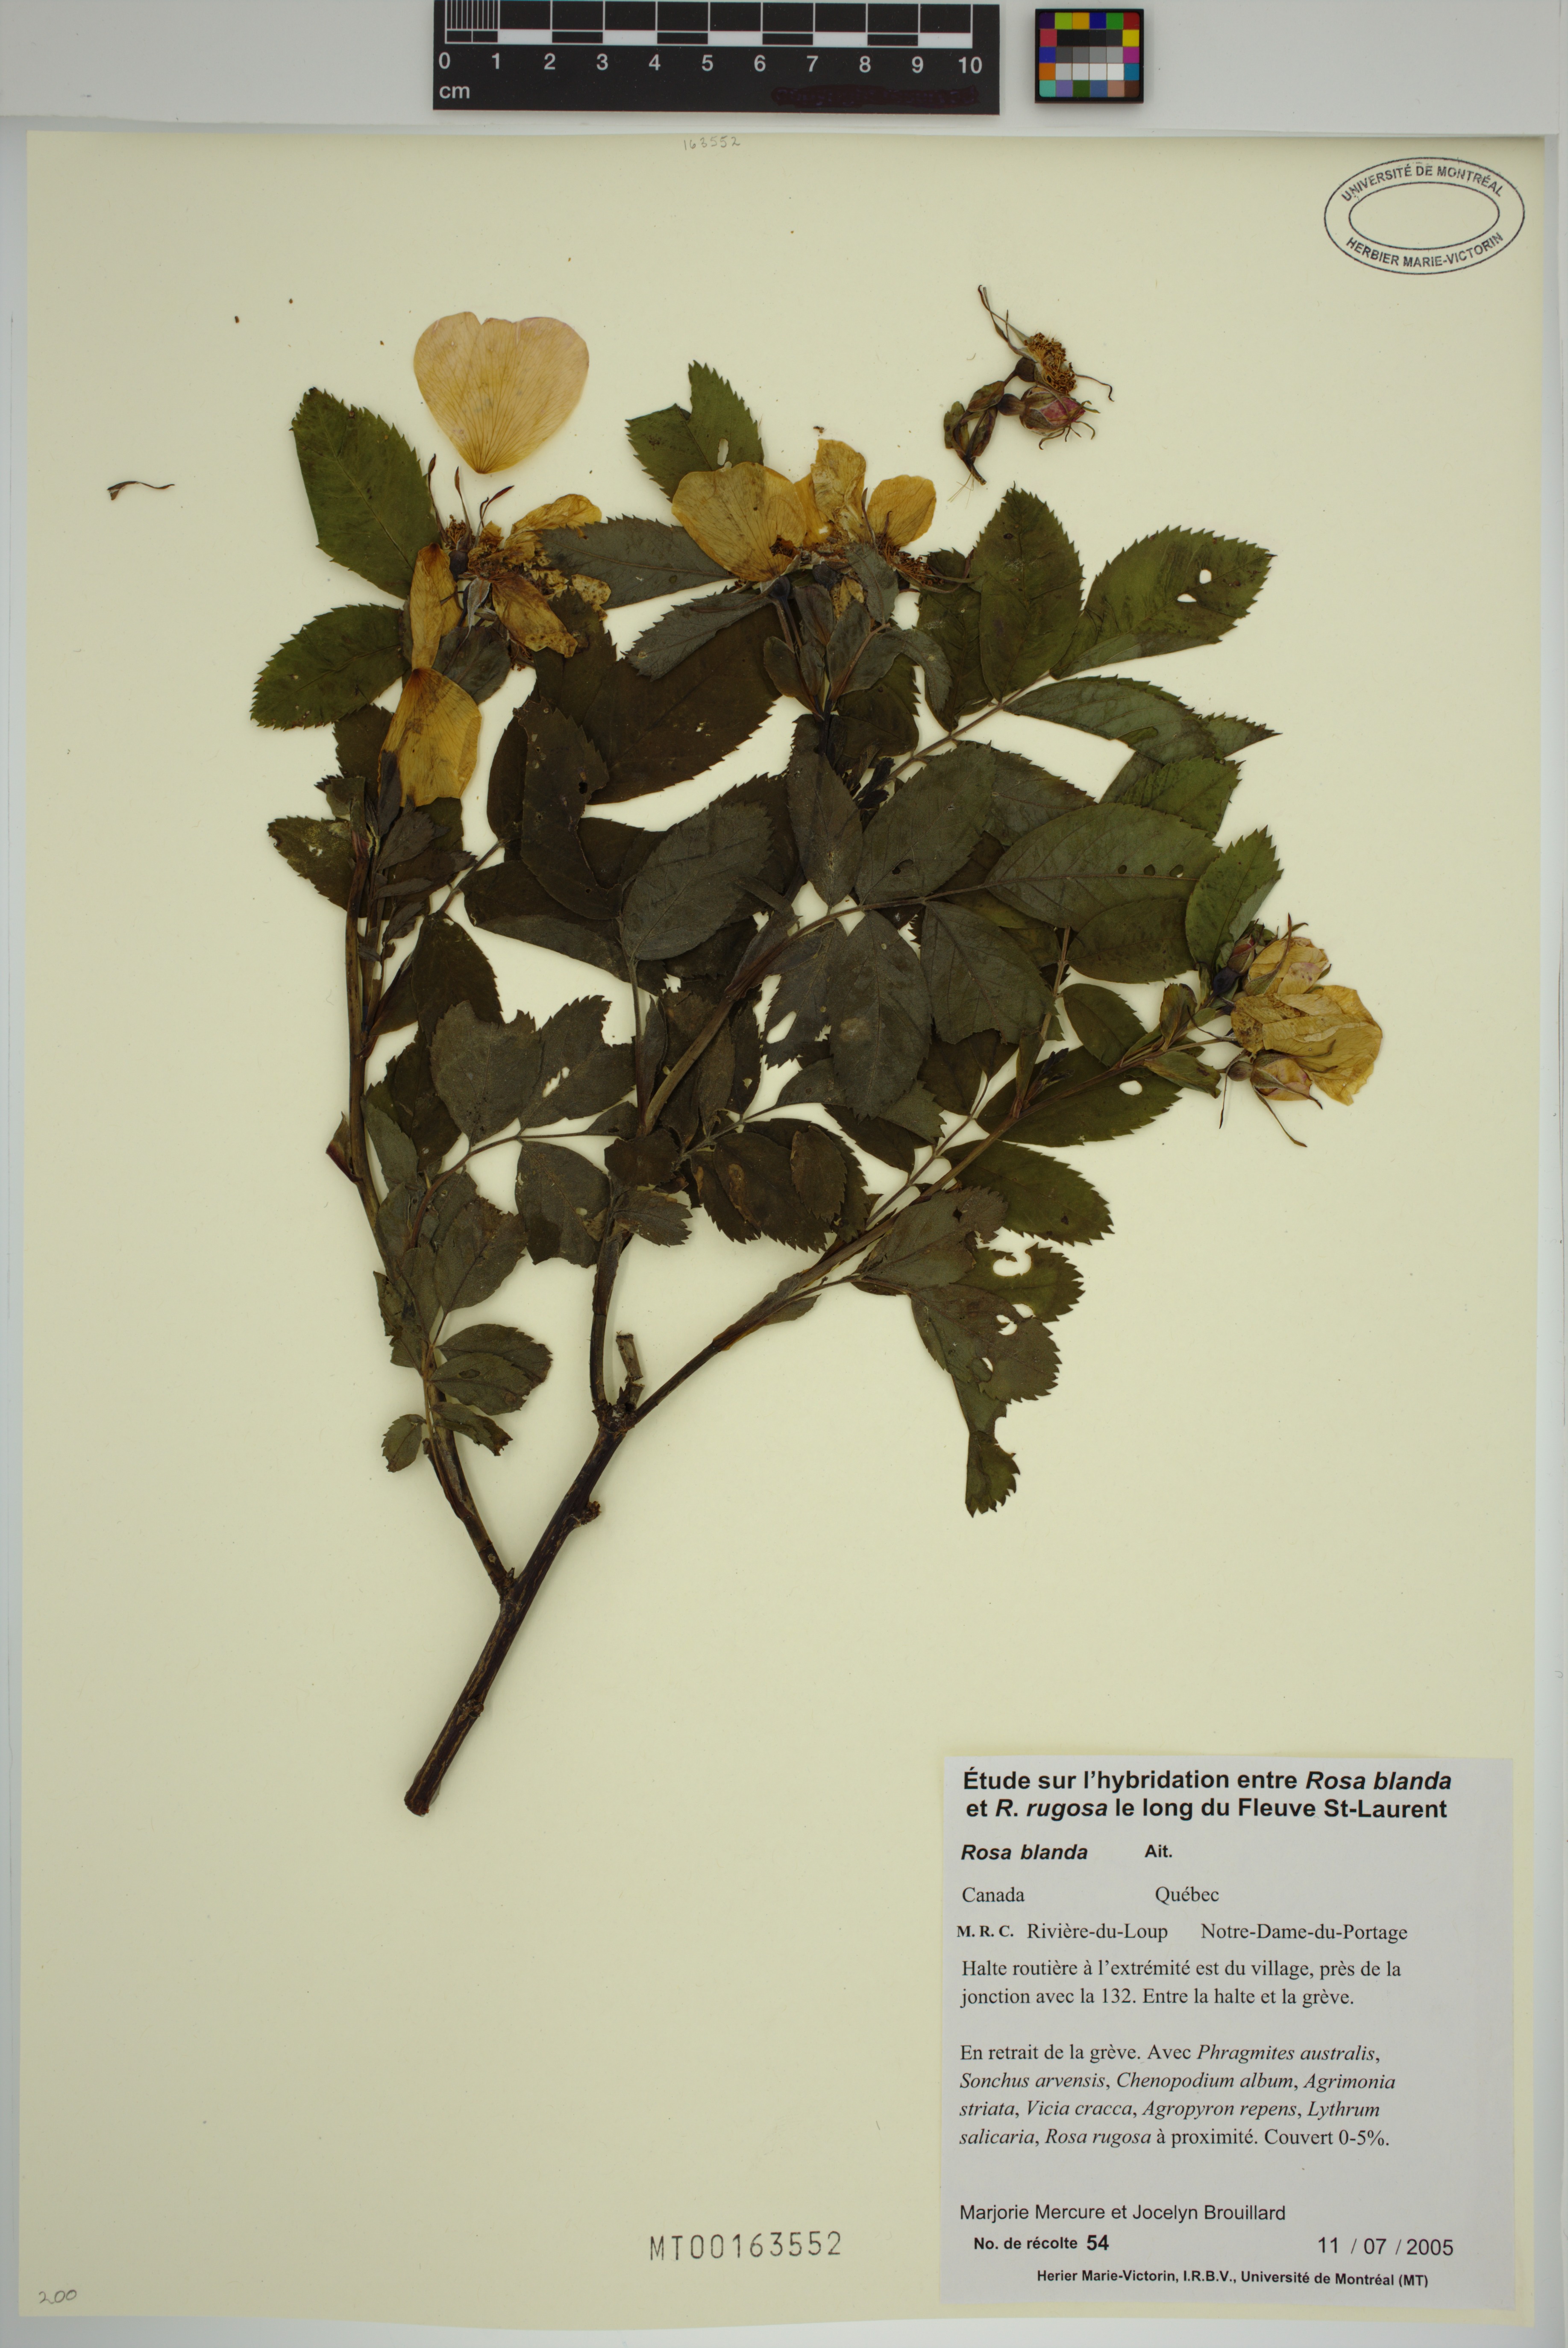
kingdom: Plantae
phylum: Tracheophyta
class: Magnoliopsida
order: Rosales
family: Rosaceae
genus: Rosa
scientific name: Rosa blanda
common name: Smooth rose
